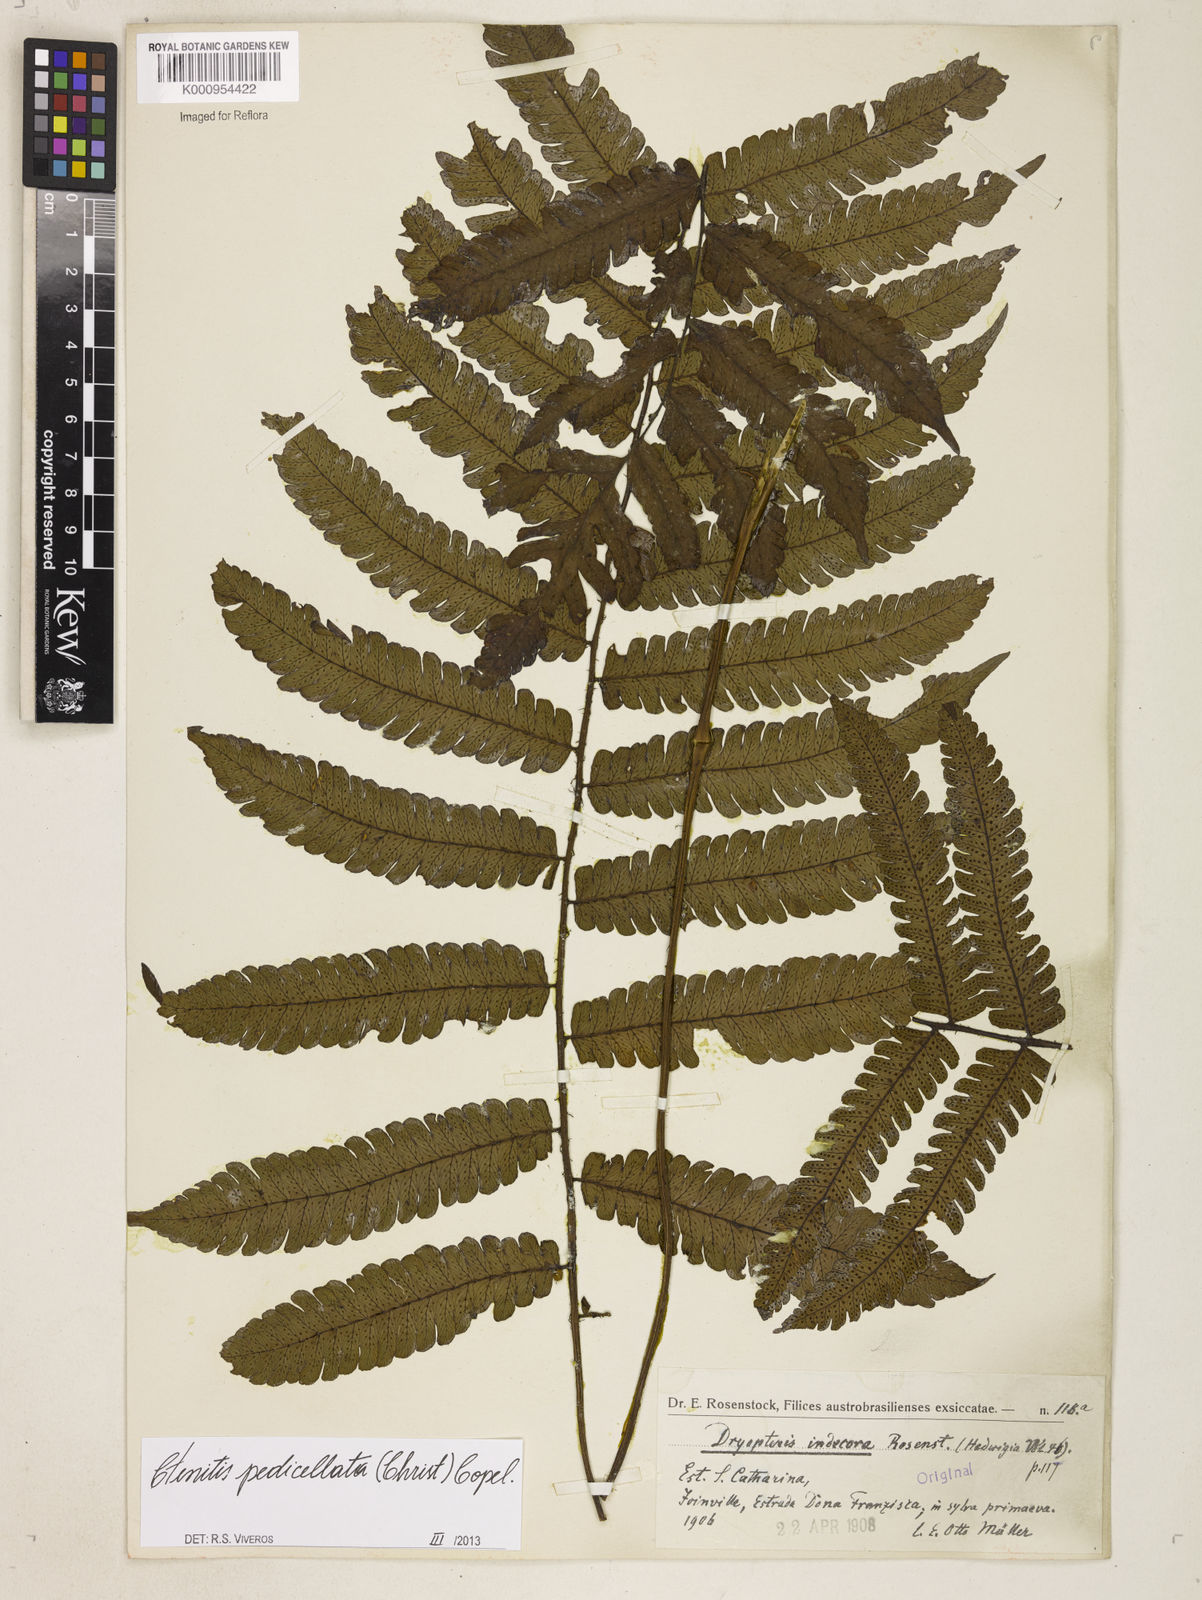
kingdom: Plantae
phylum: Tracheophyta
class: Polypodiopsida
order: Polypodiales
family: Dryopteridaceae
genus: Ctenitis
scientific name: Ctenitis nervata
